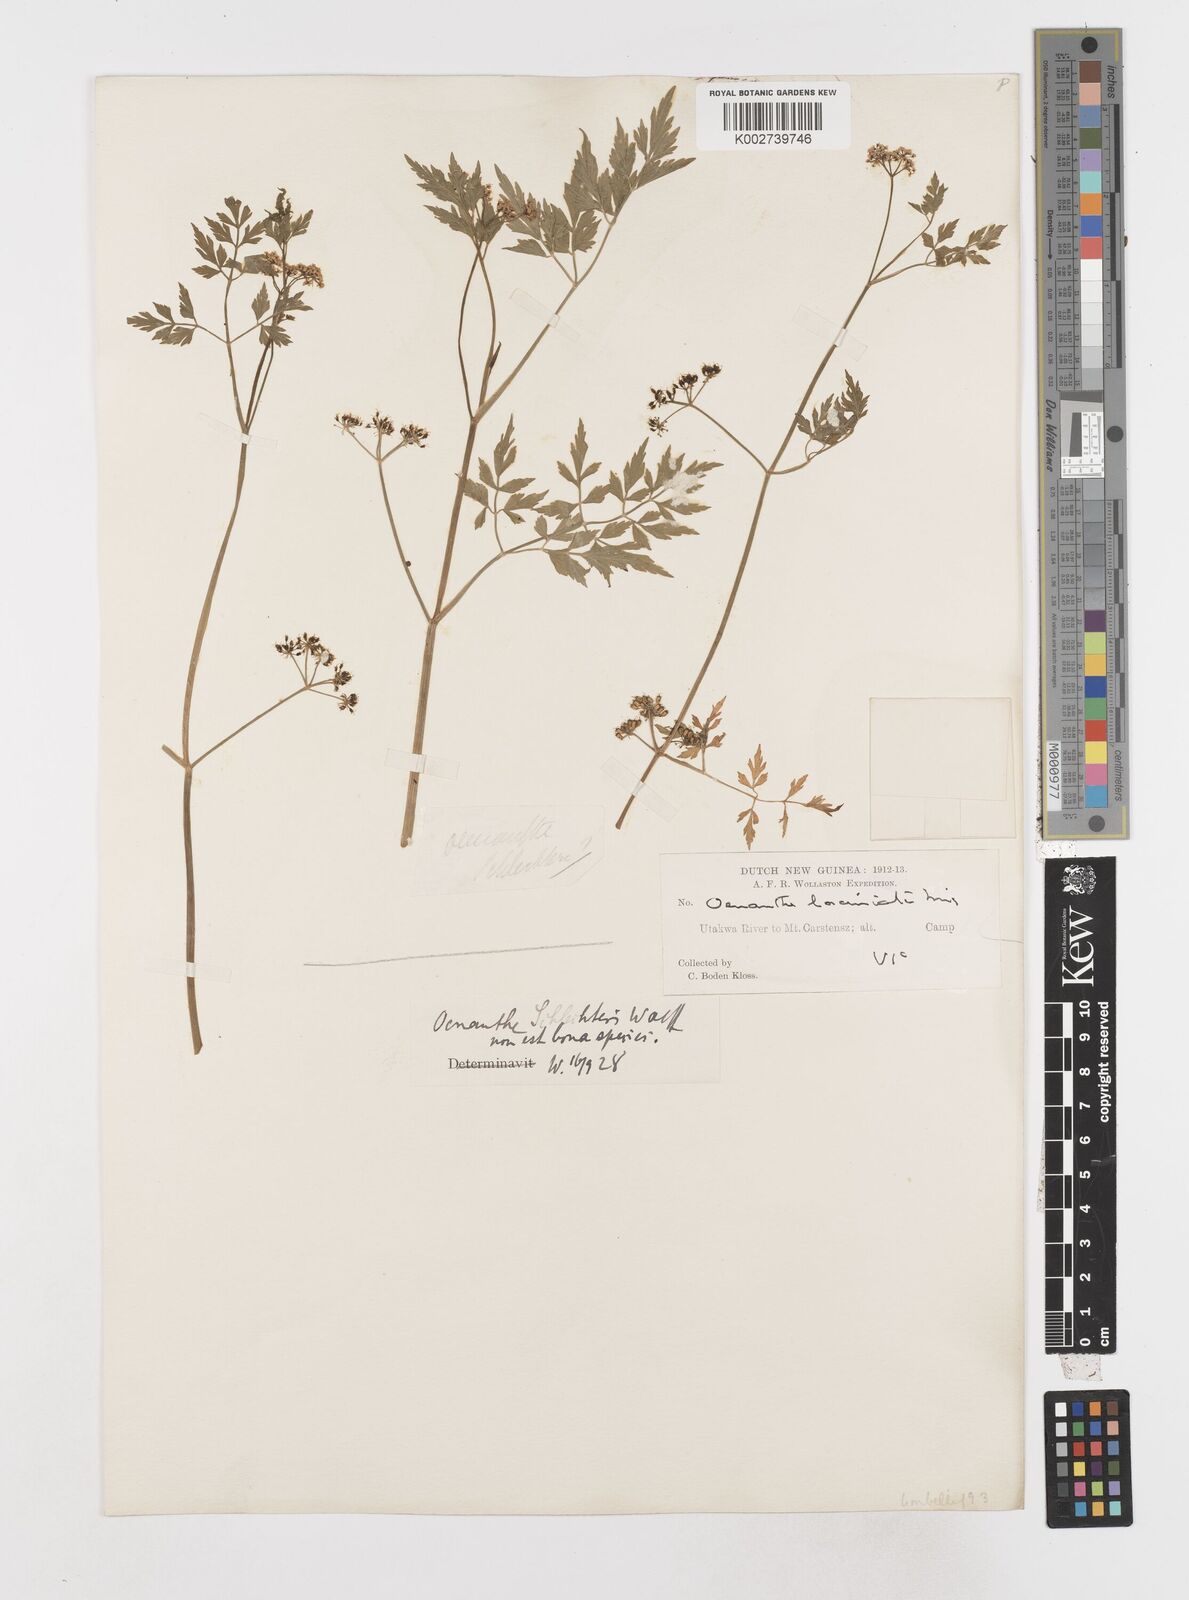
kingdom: Plantae
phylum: Tracheophyta
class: Magnoliopsida
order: Apiales
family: Apiaceae
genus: Oenanthe
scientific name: Oenanthe javanica
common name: Java water-dropwort
